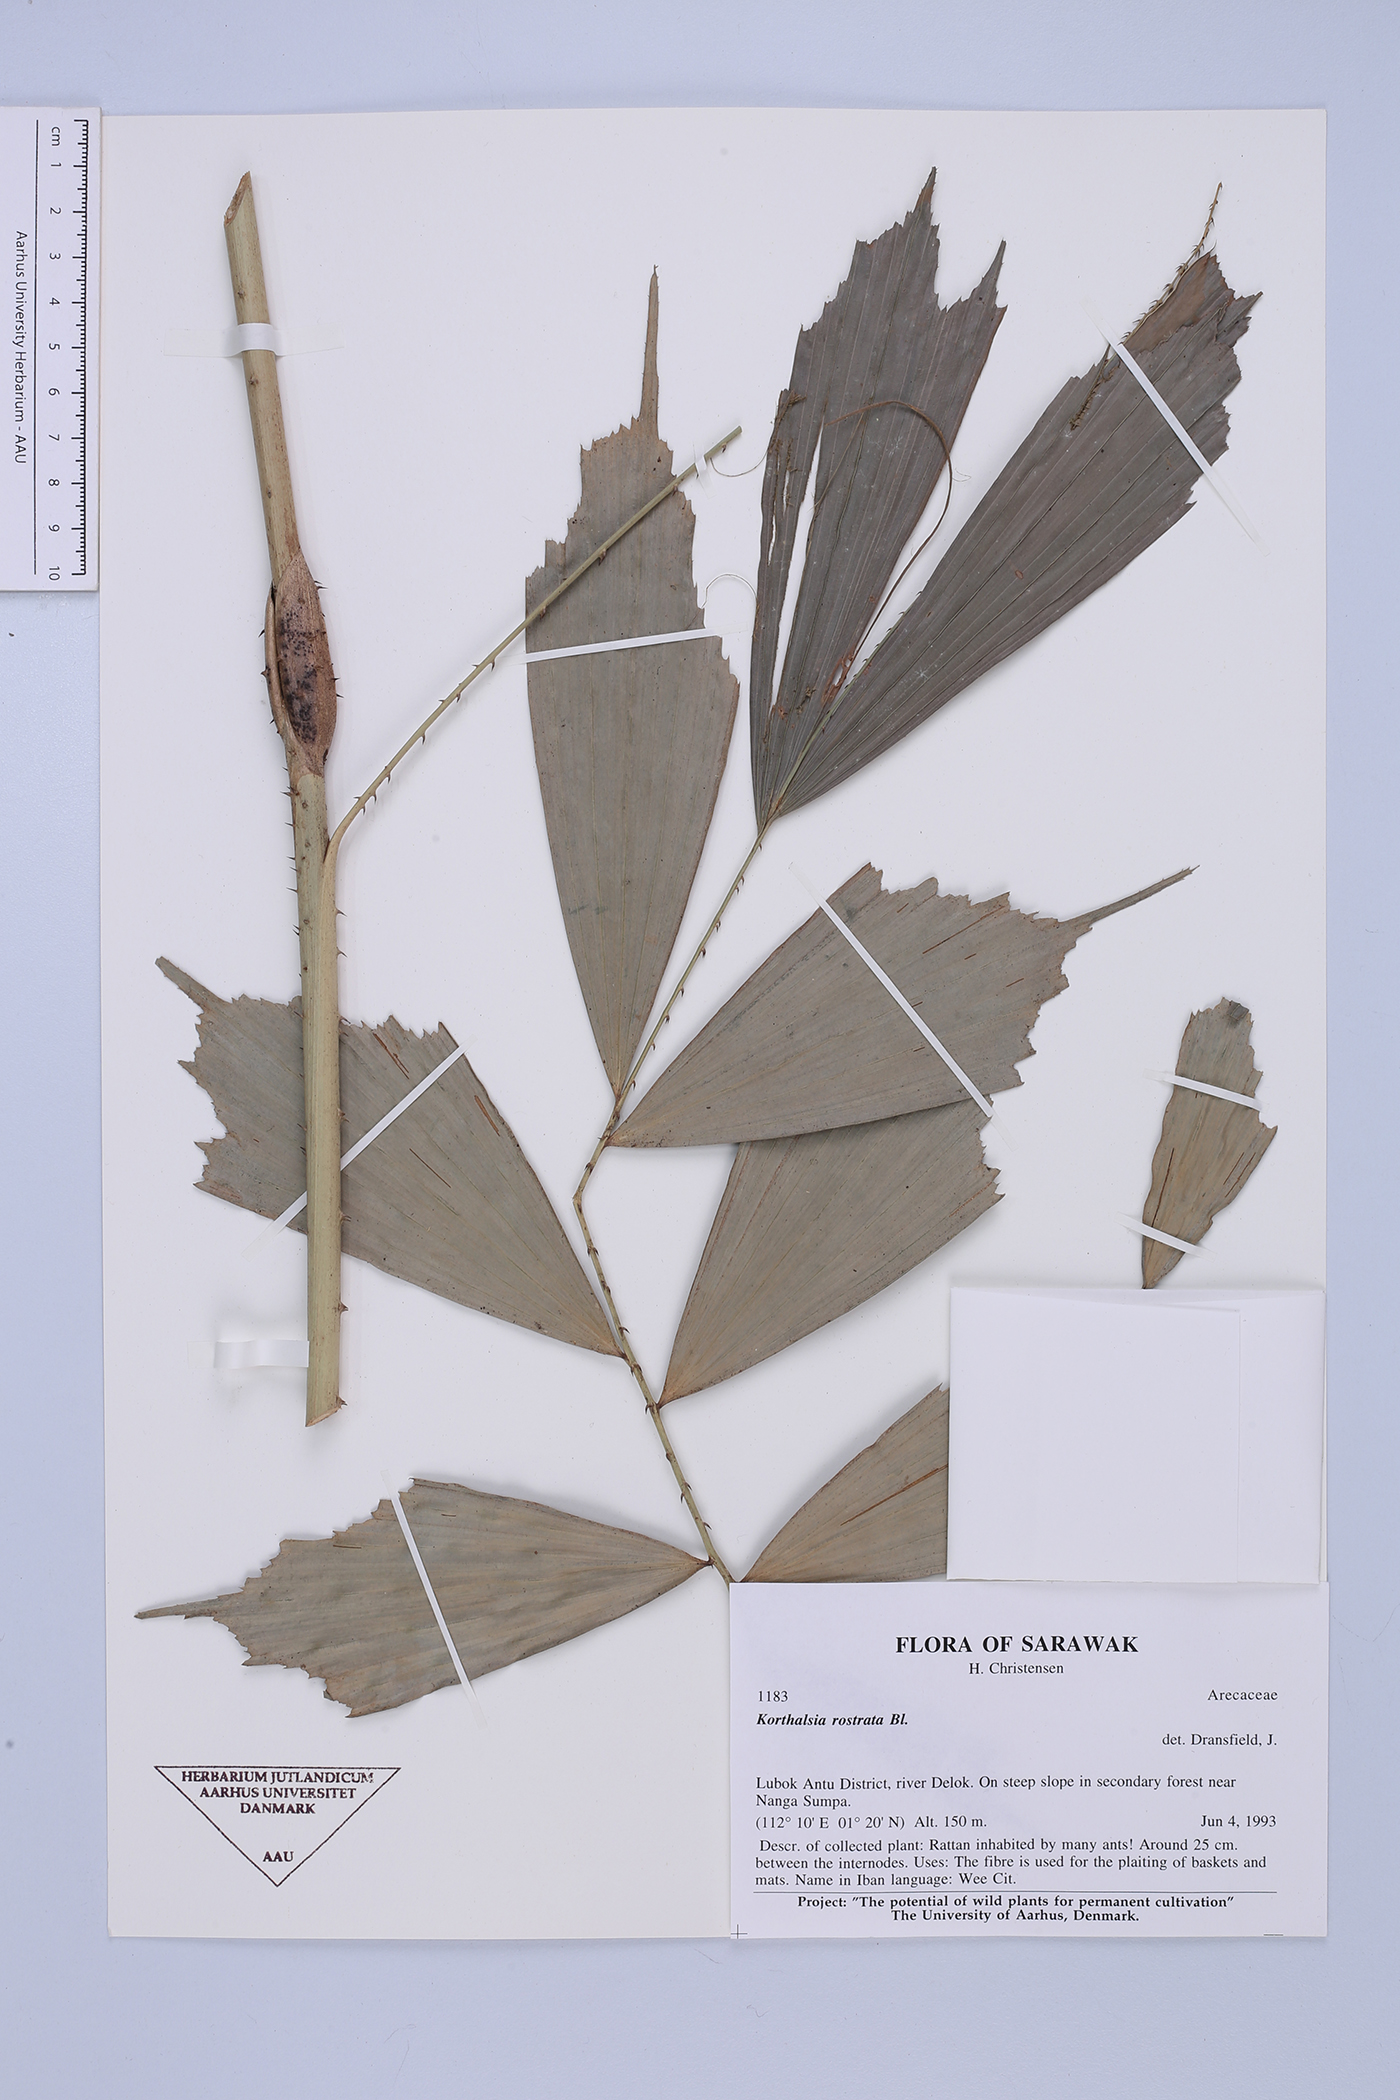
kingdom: Plantae
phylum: Tracheophyta
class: Liliopsida
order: Arecales
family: Arecaceae
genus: Korthalsia
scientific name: Korthalsia rostrata
